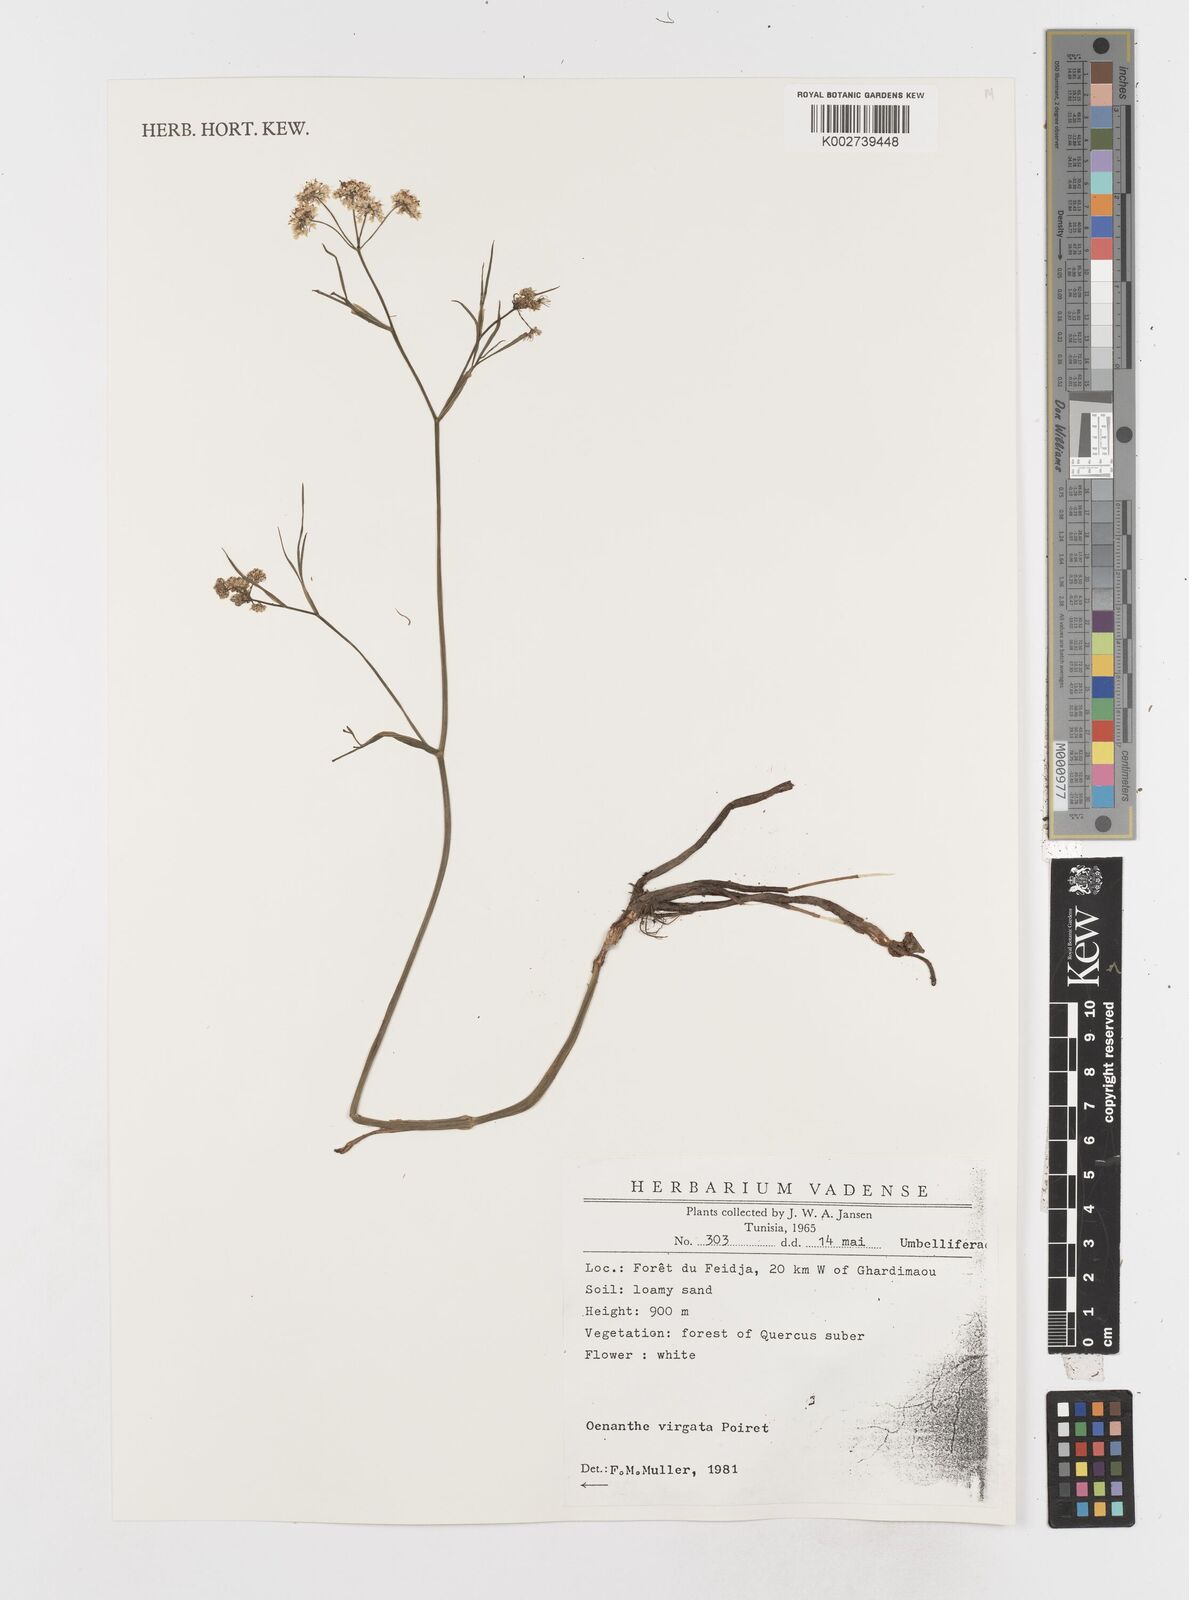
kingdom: Plantae
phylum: Tracheophyta
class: Magnoliopsida
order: Apiales
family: Apiaceae
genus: Oenanthe
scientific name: Oenanthe virgata
